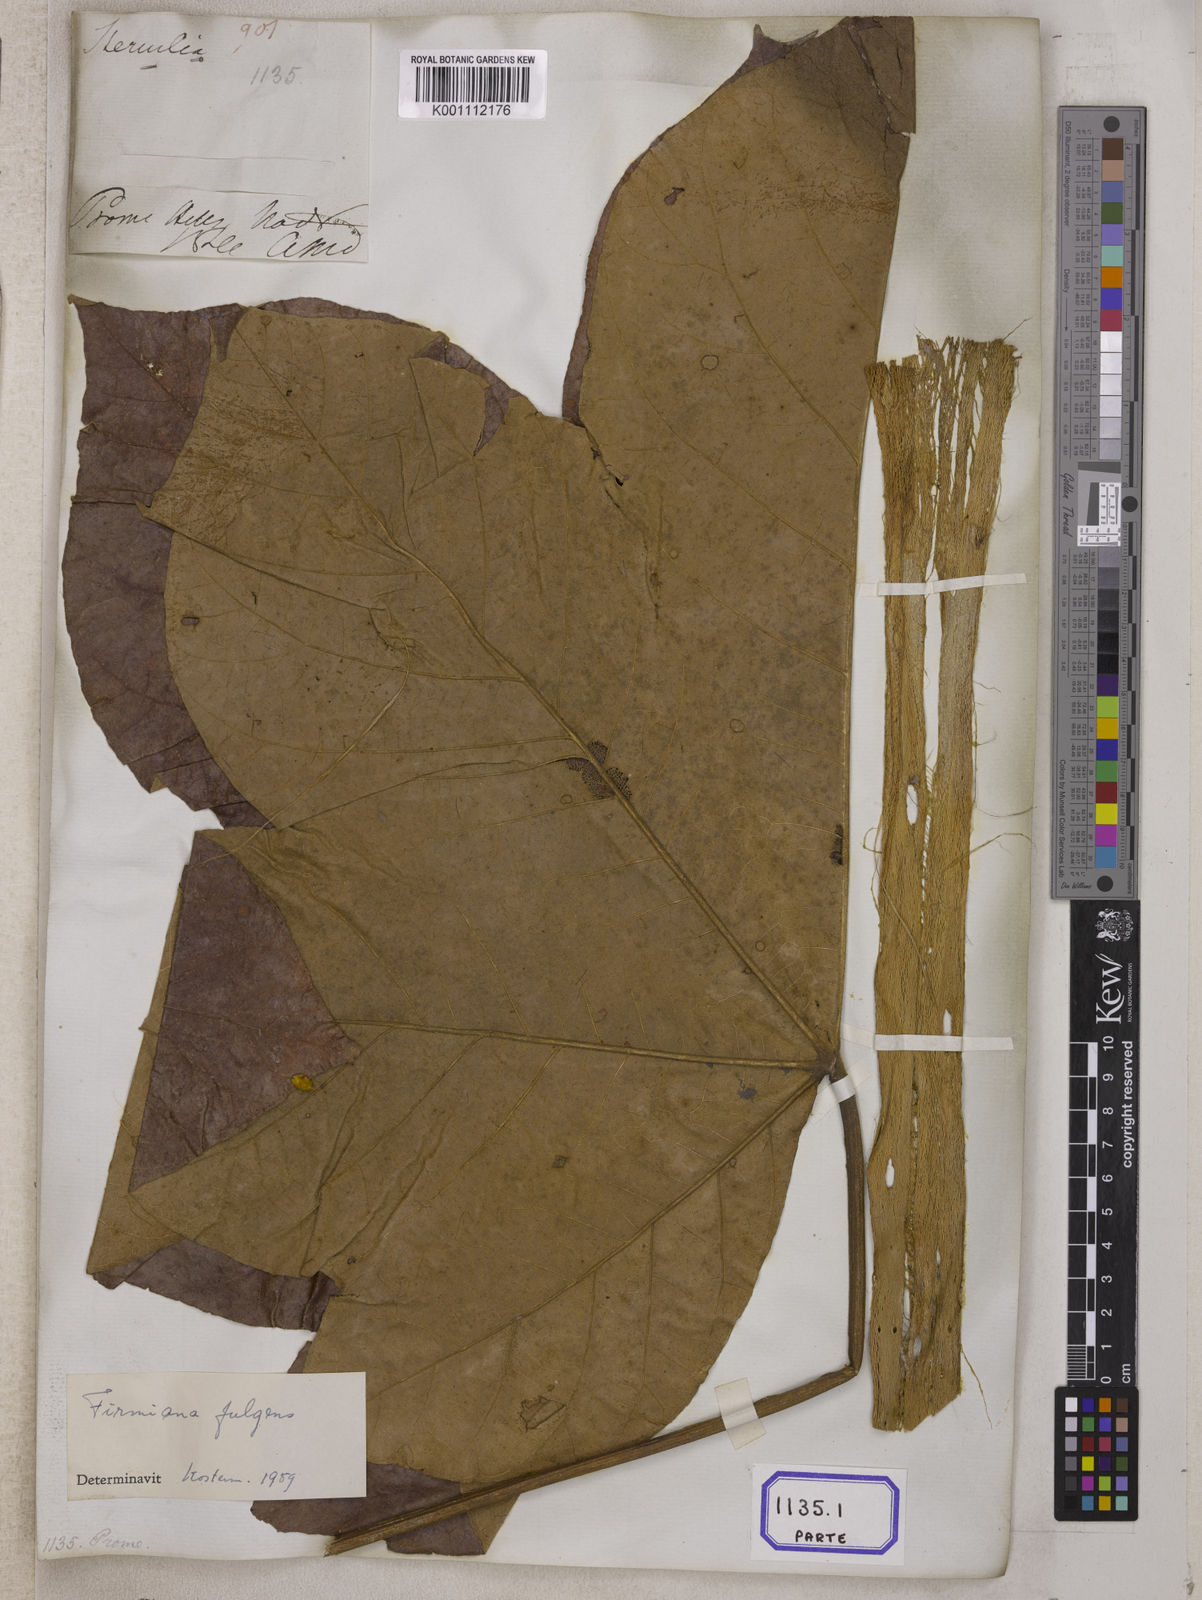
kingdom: Plantae
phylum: Tracheophyta
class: Magnoliopsida
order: Malvales
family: Malvaceae
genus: Sterculia
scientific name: Sterculia
